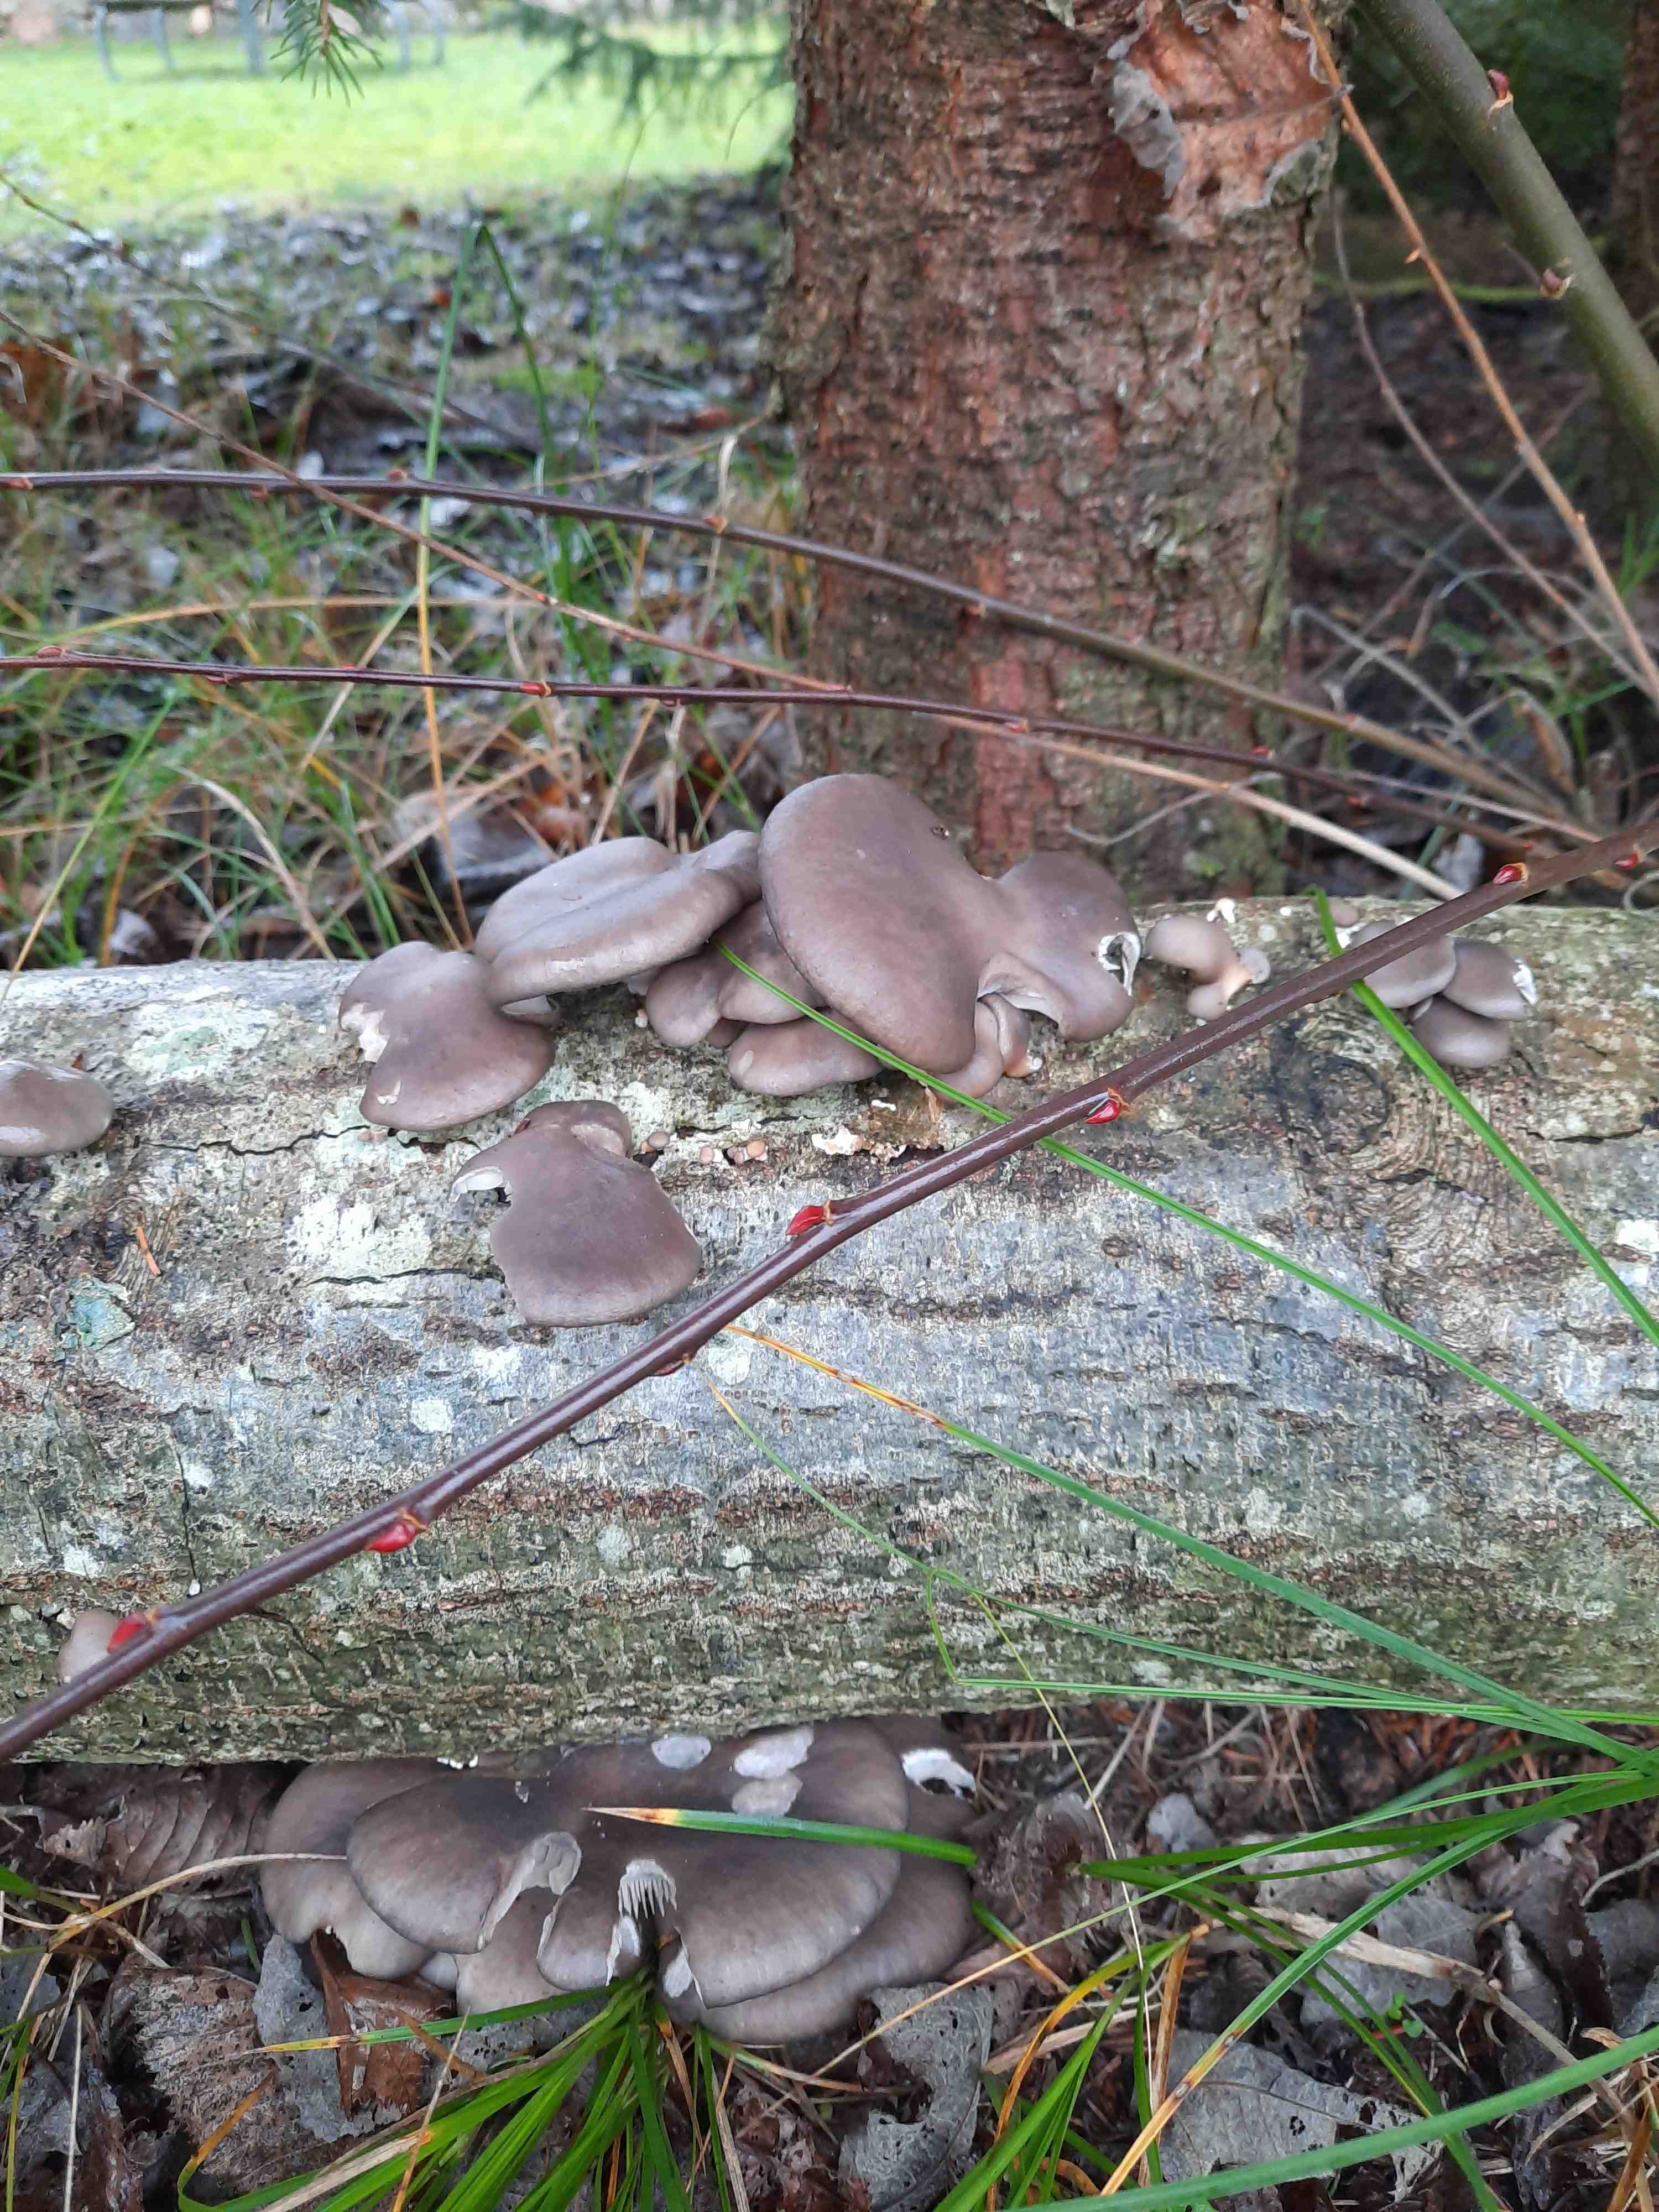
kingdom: Fungi
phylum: Basidiomycota
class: Agaricomycetes
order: Agaricales
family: Pleurotaceae
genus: Pleurotus
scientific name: Pleurotus ostreatus
